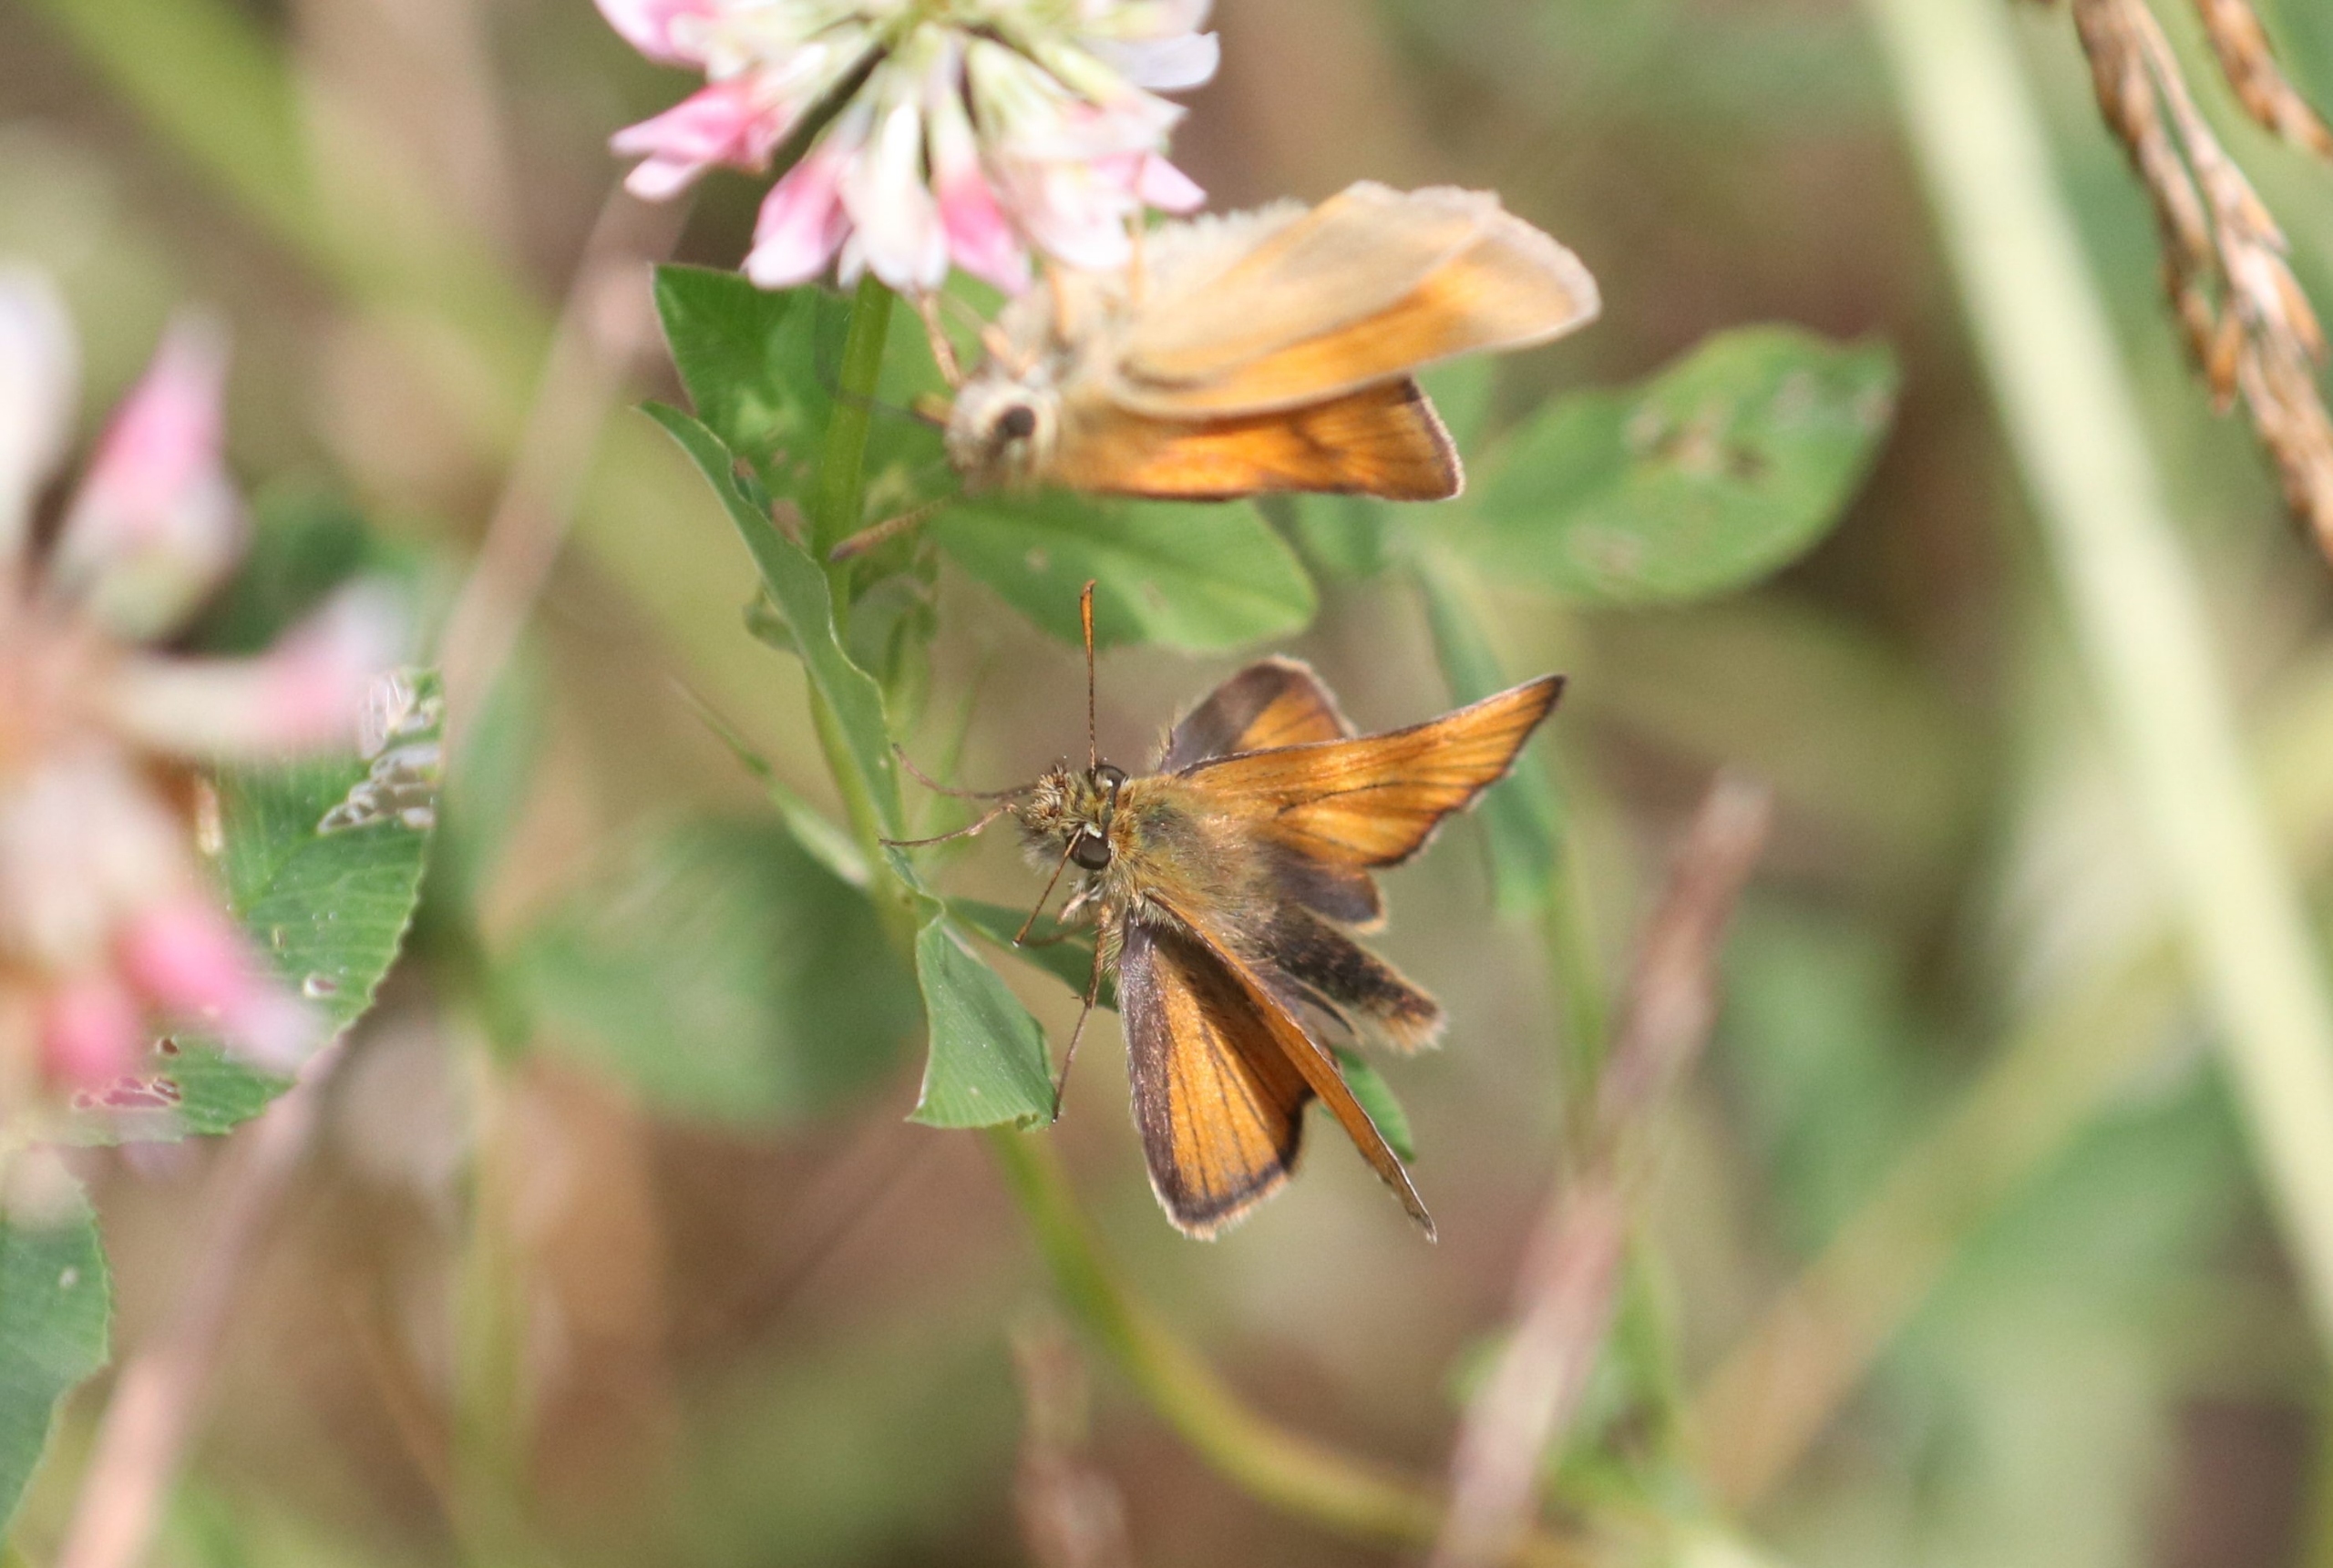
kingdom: Animalia
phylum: Arthropoda
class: Insecta
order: Lepidoptera
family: Hesperiidae
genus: Thymelicus
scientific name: Thymelicus sylvestris
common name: Skråstregbredpande
